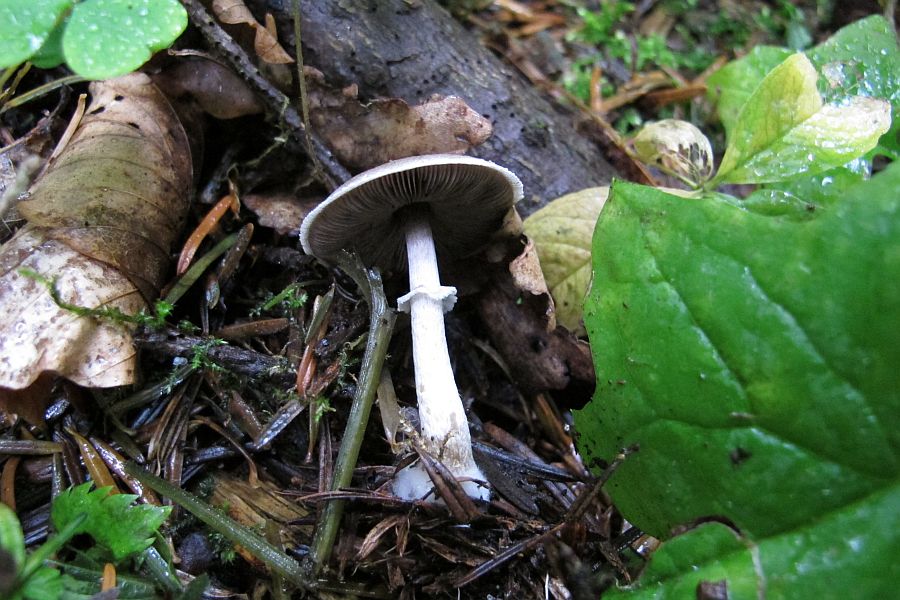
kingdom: Fungi
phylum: Basidiomycota
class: Agaricomycetes
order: Agaricales
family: Agaricaceae
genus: Agaricus
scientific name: Agaricus dulcidulus
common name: blegrød champignon
